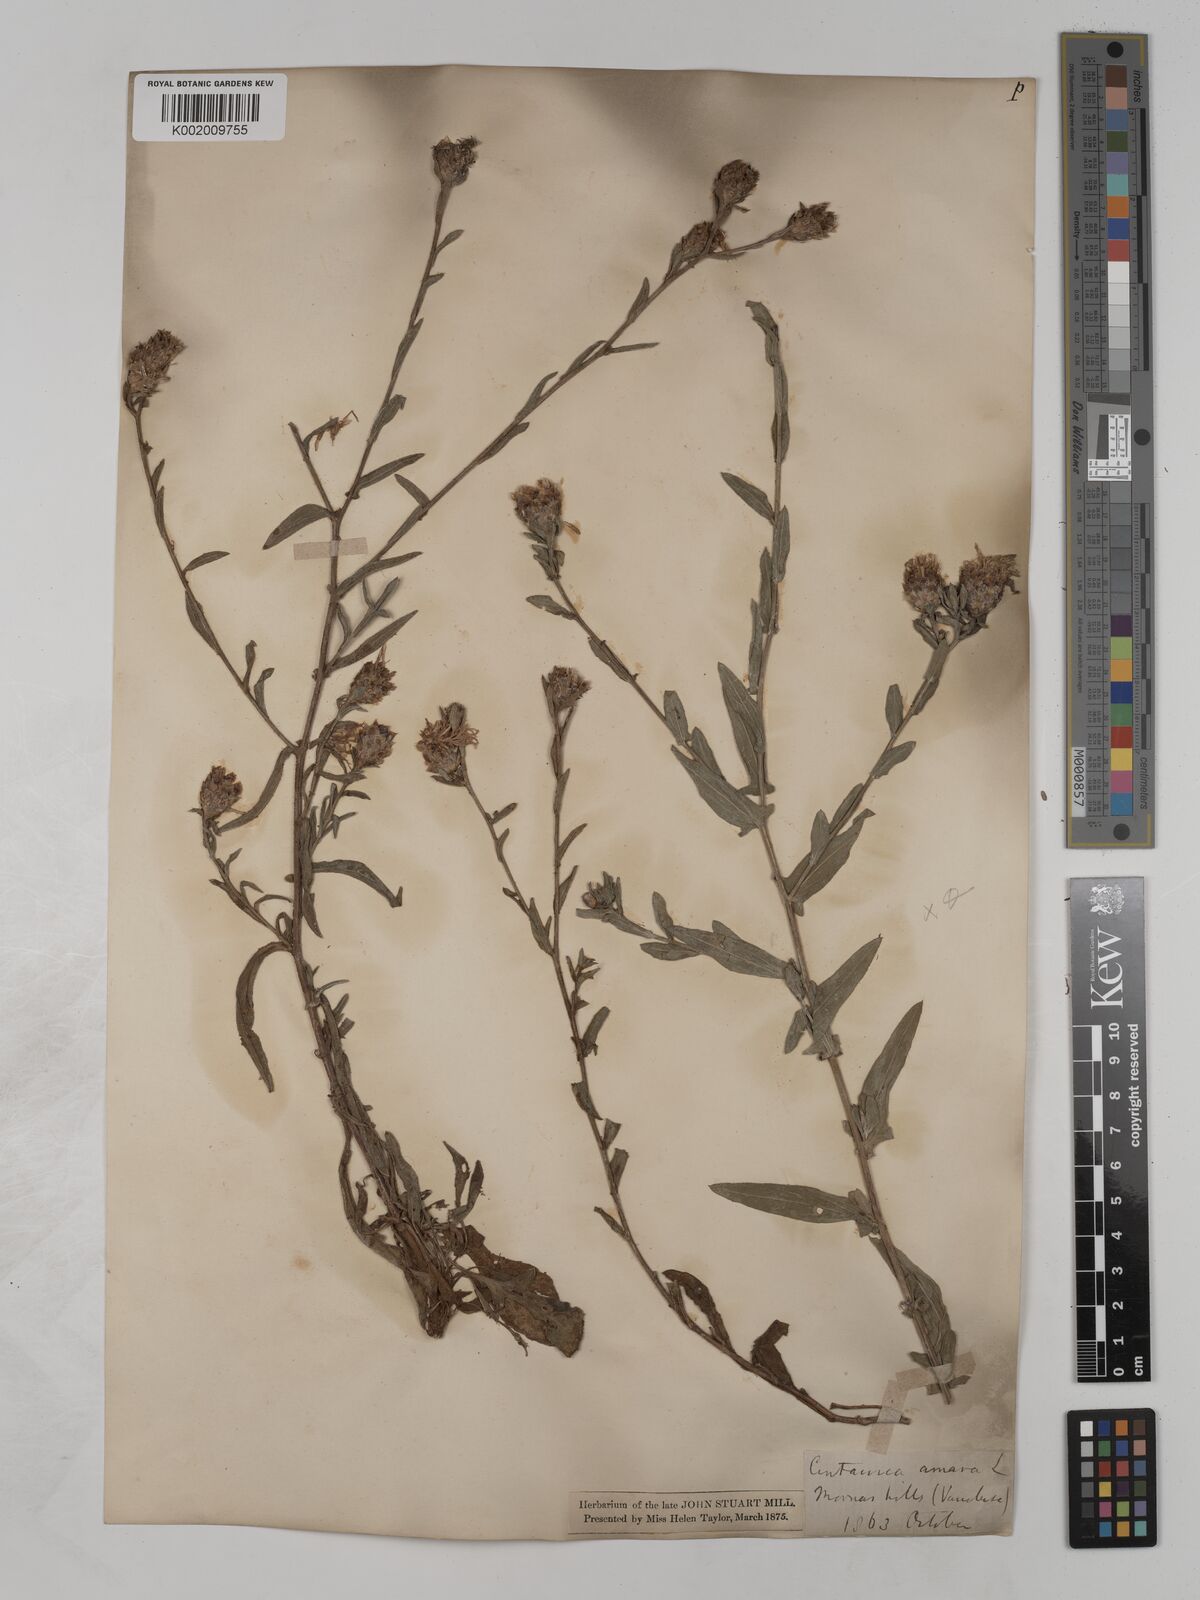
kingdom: Plantae
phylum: Tracheophyta
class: Magnoliopsida
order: Asterales
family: Asteraceae
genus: Centaurea
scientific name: Centaurea timbalii
